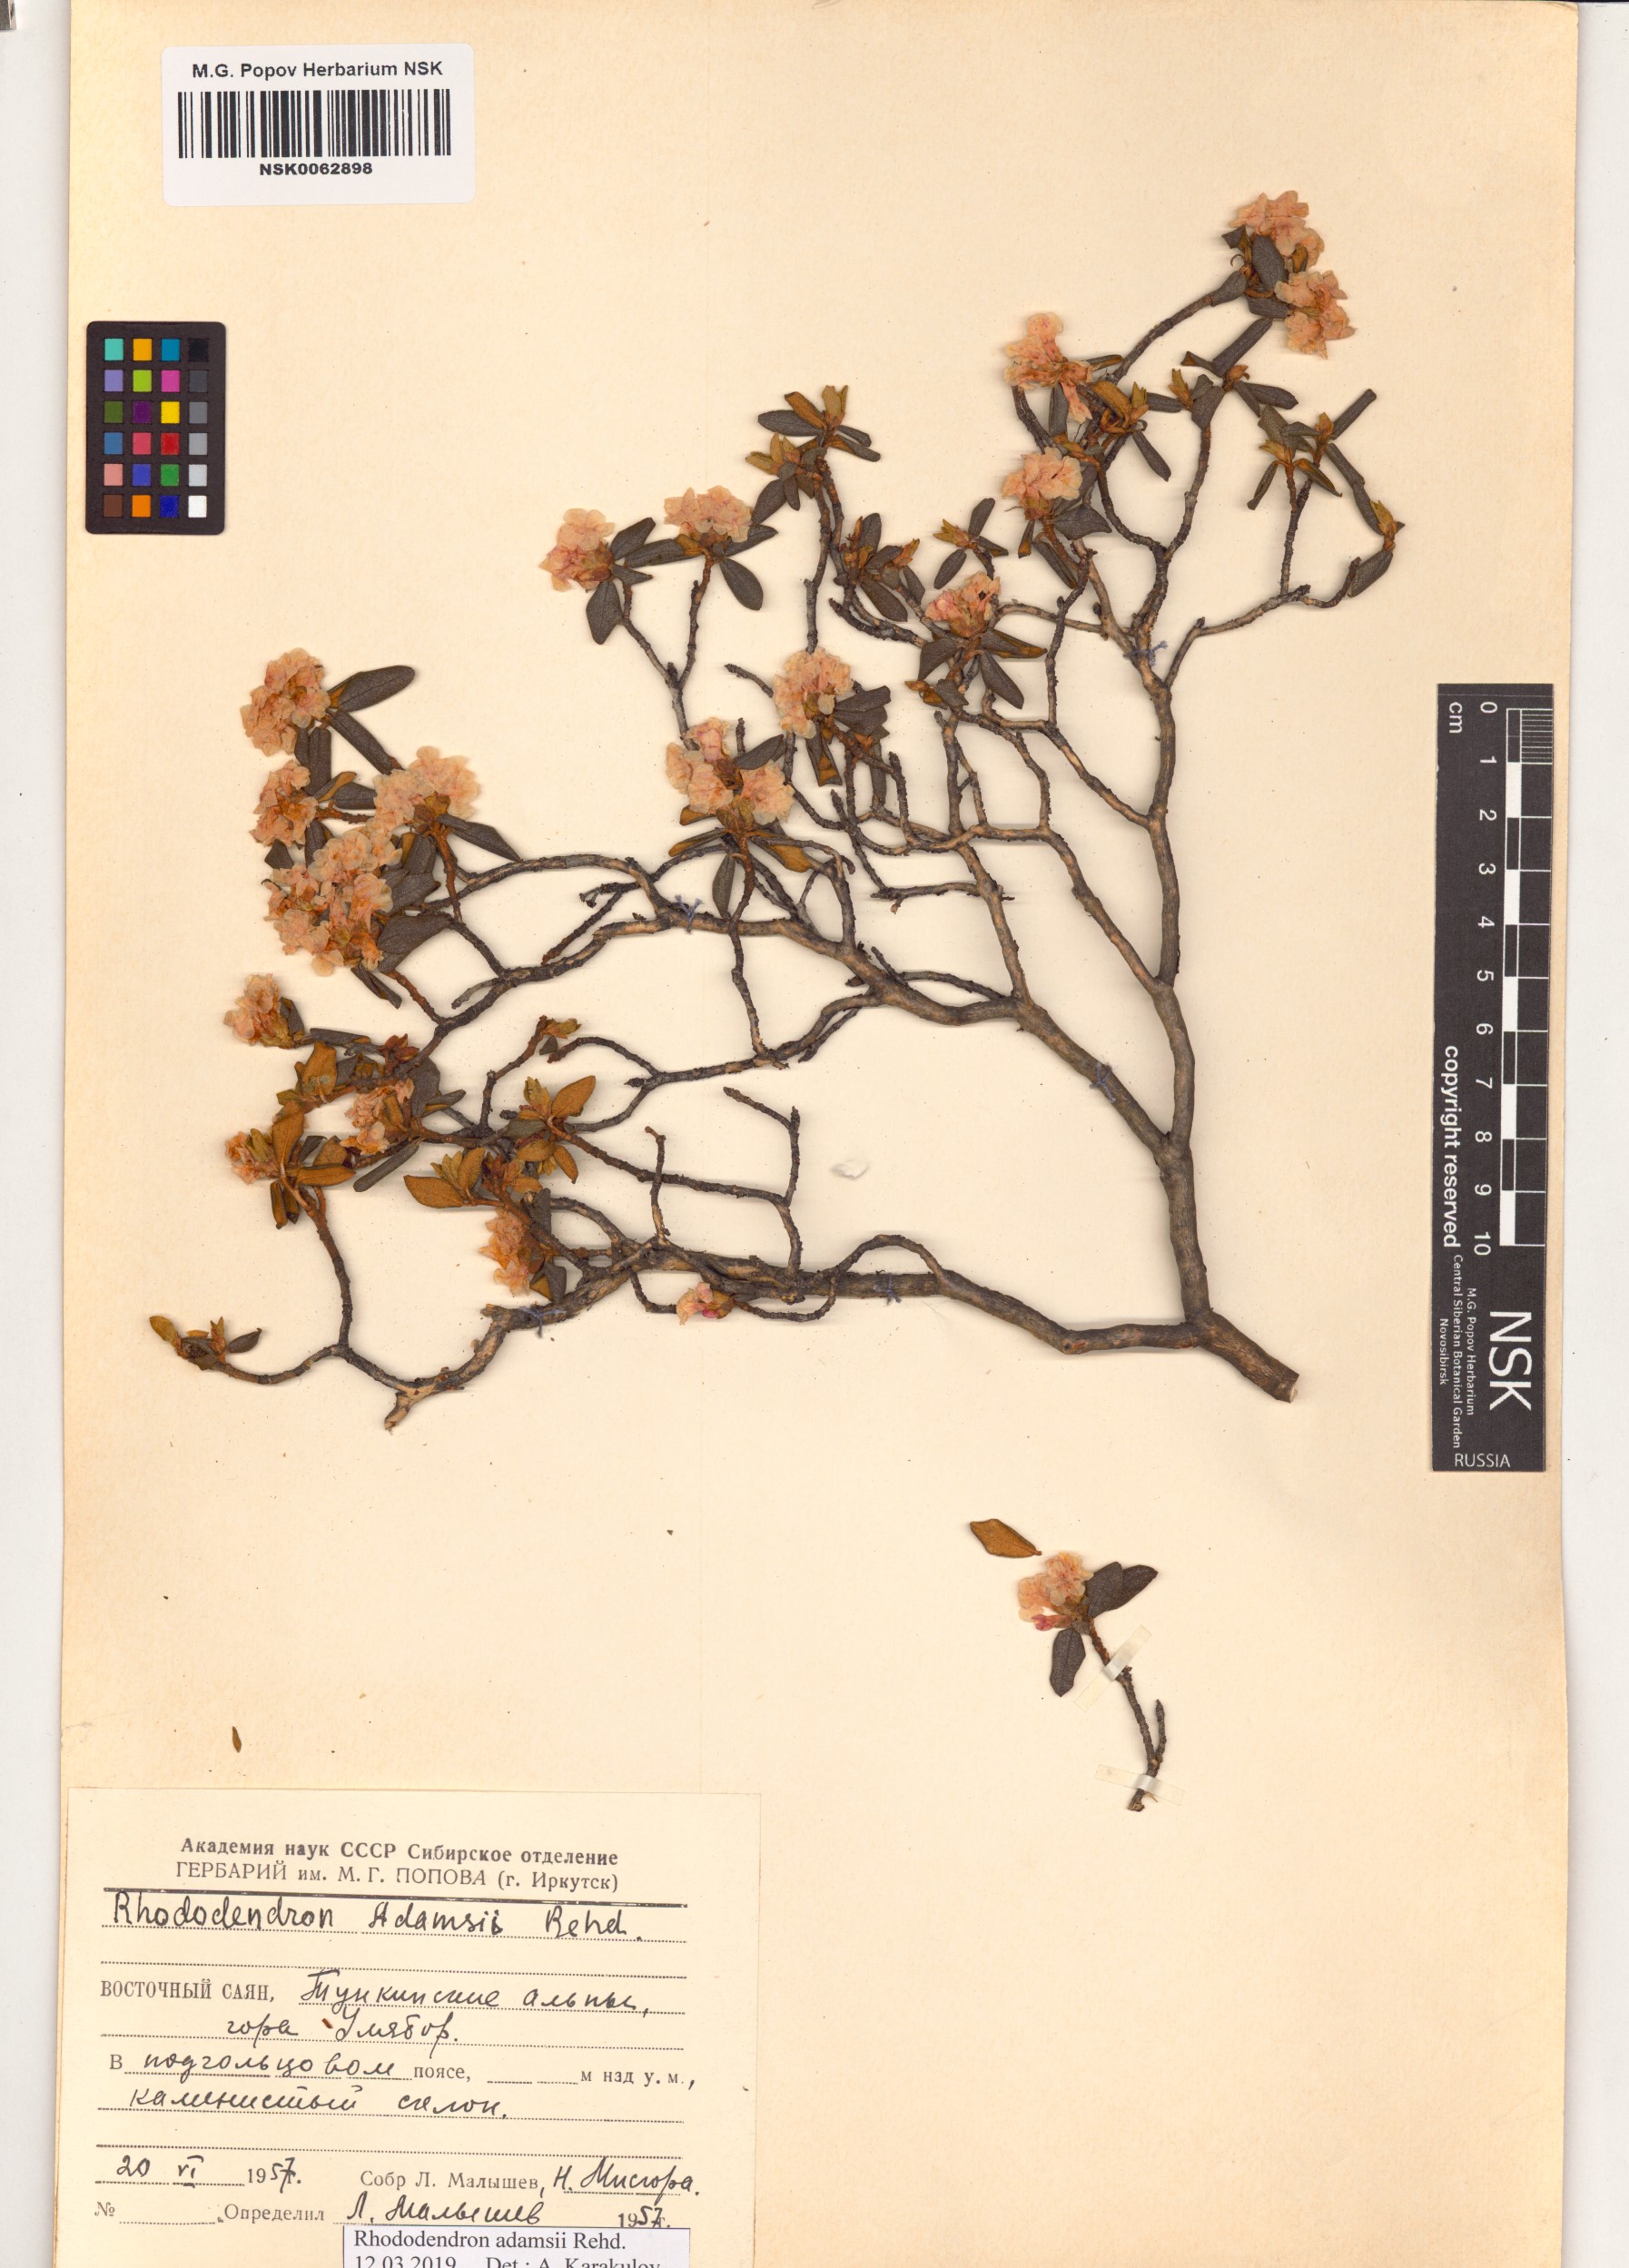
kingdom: Plantae
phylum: Tracheophyta
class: Magnoliopsida
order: Ericales
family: Ericaceae
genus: Rhododendron
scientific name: Rhododendron adamsii
